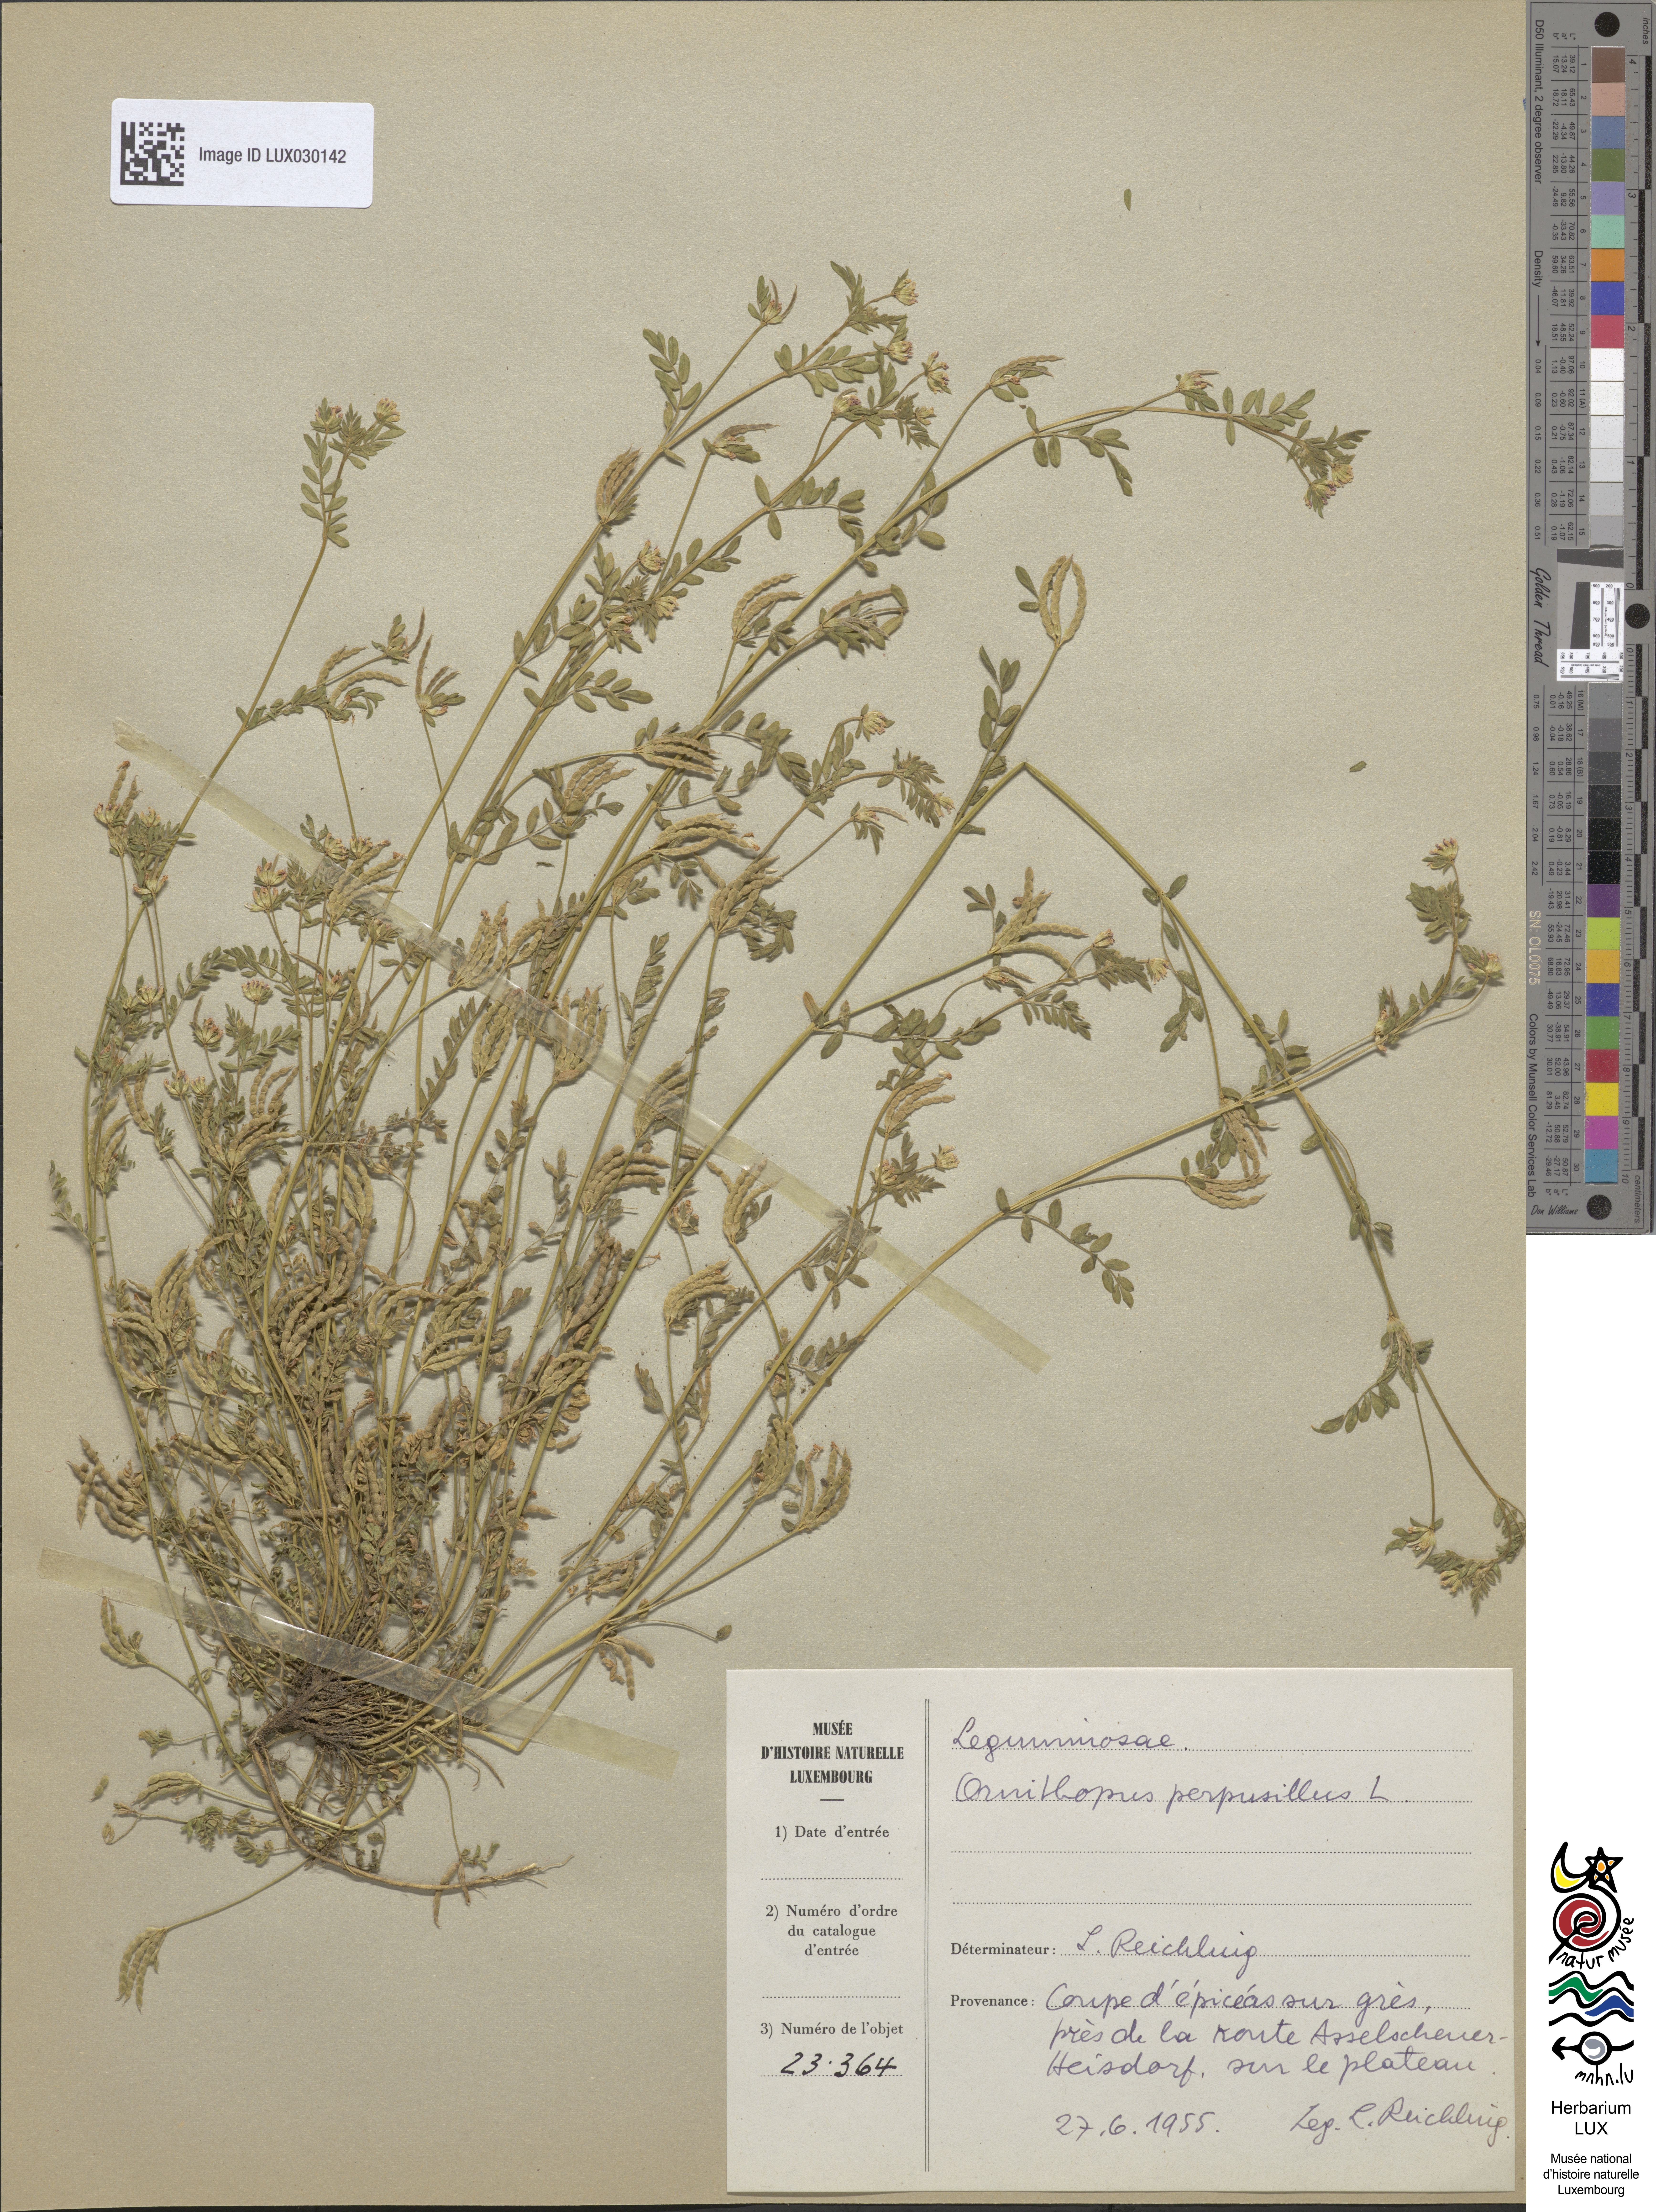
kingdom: Plantae
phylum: Tracheophyta
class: Magnoliopsida
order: Fabales
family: Fabaceae
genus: Ornithopus
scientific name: Ornithopus perpusillus
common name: Bird's-foot
